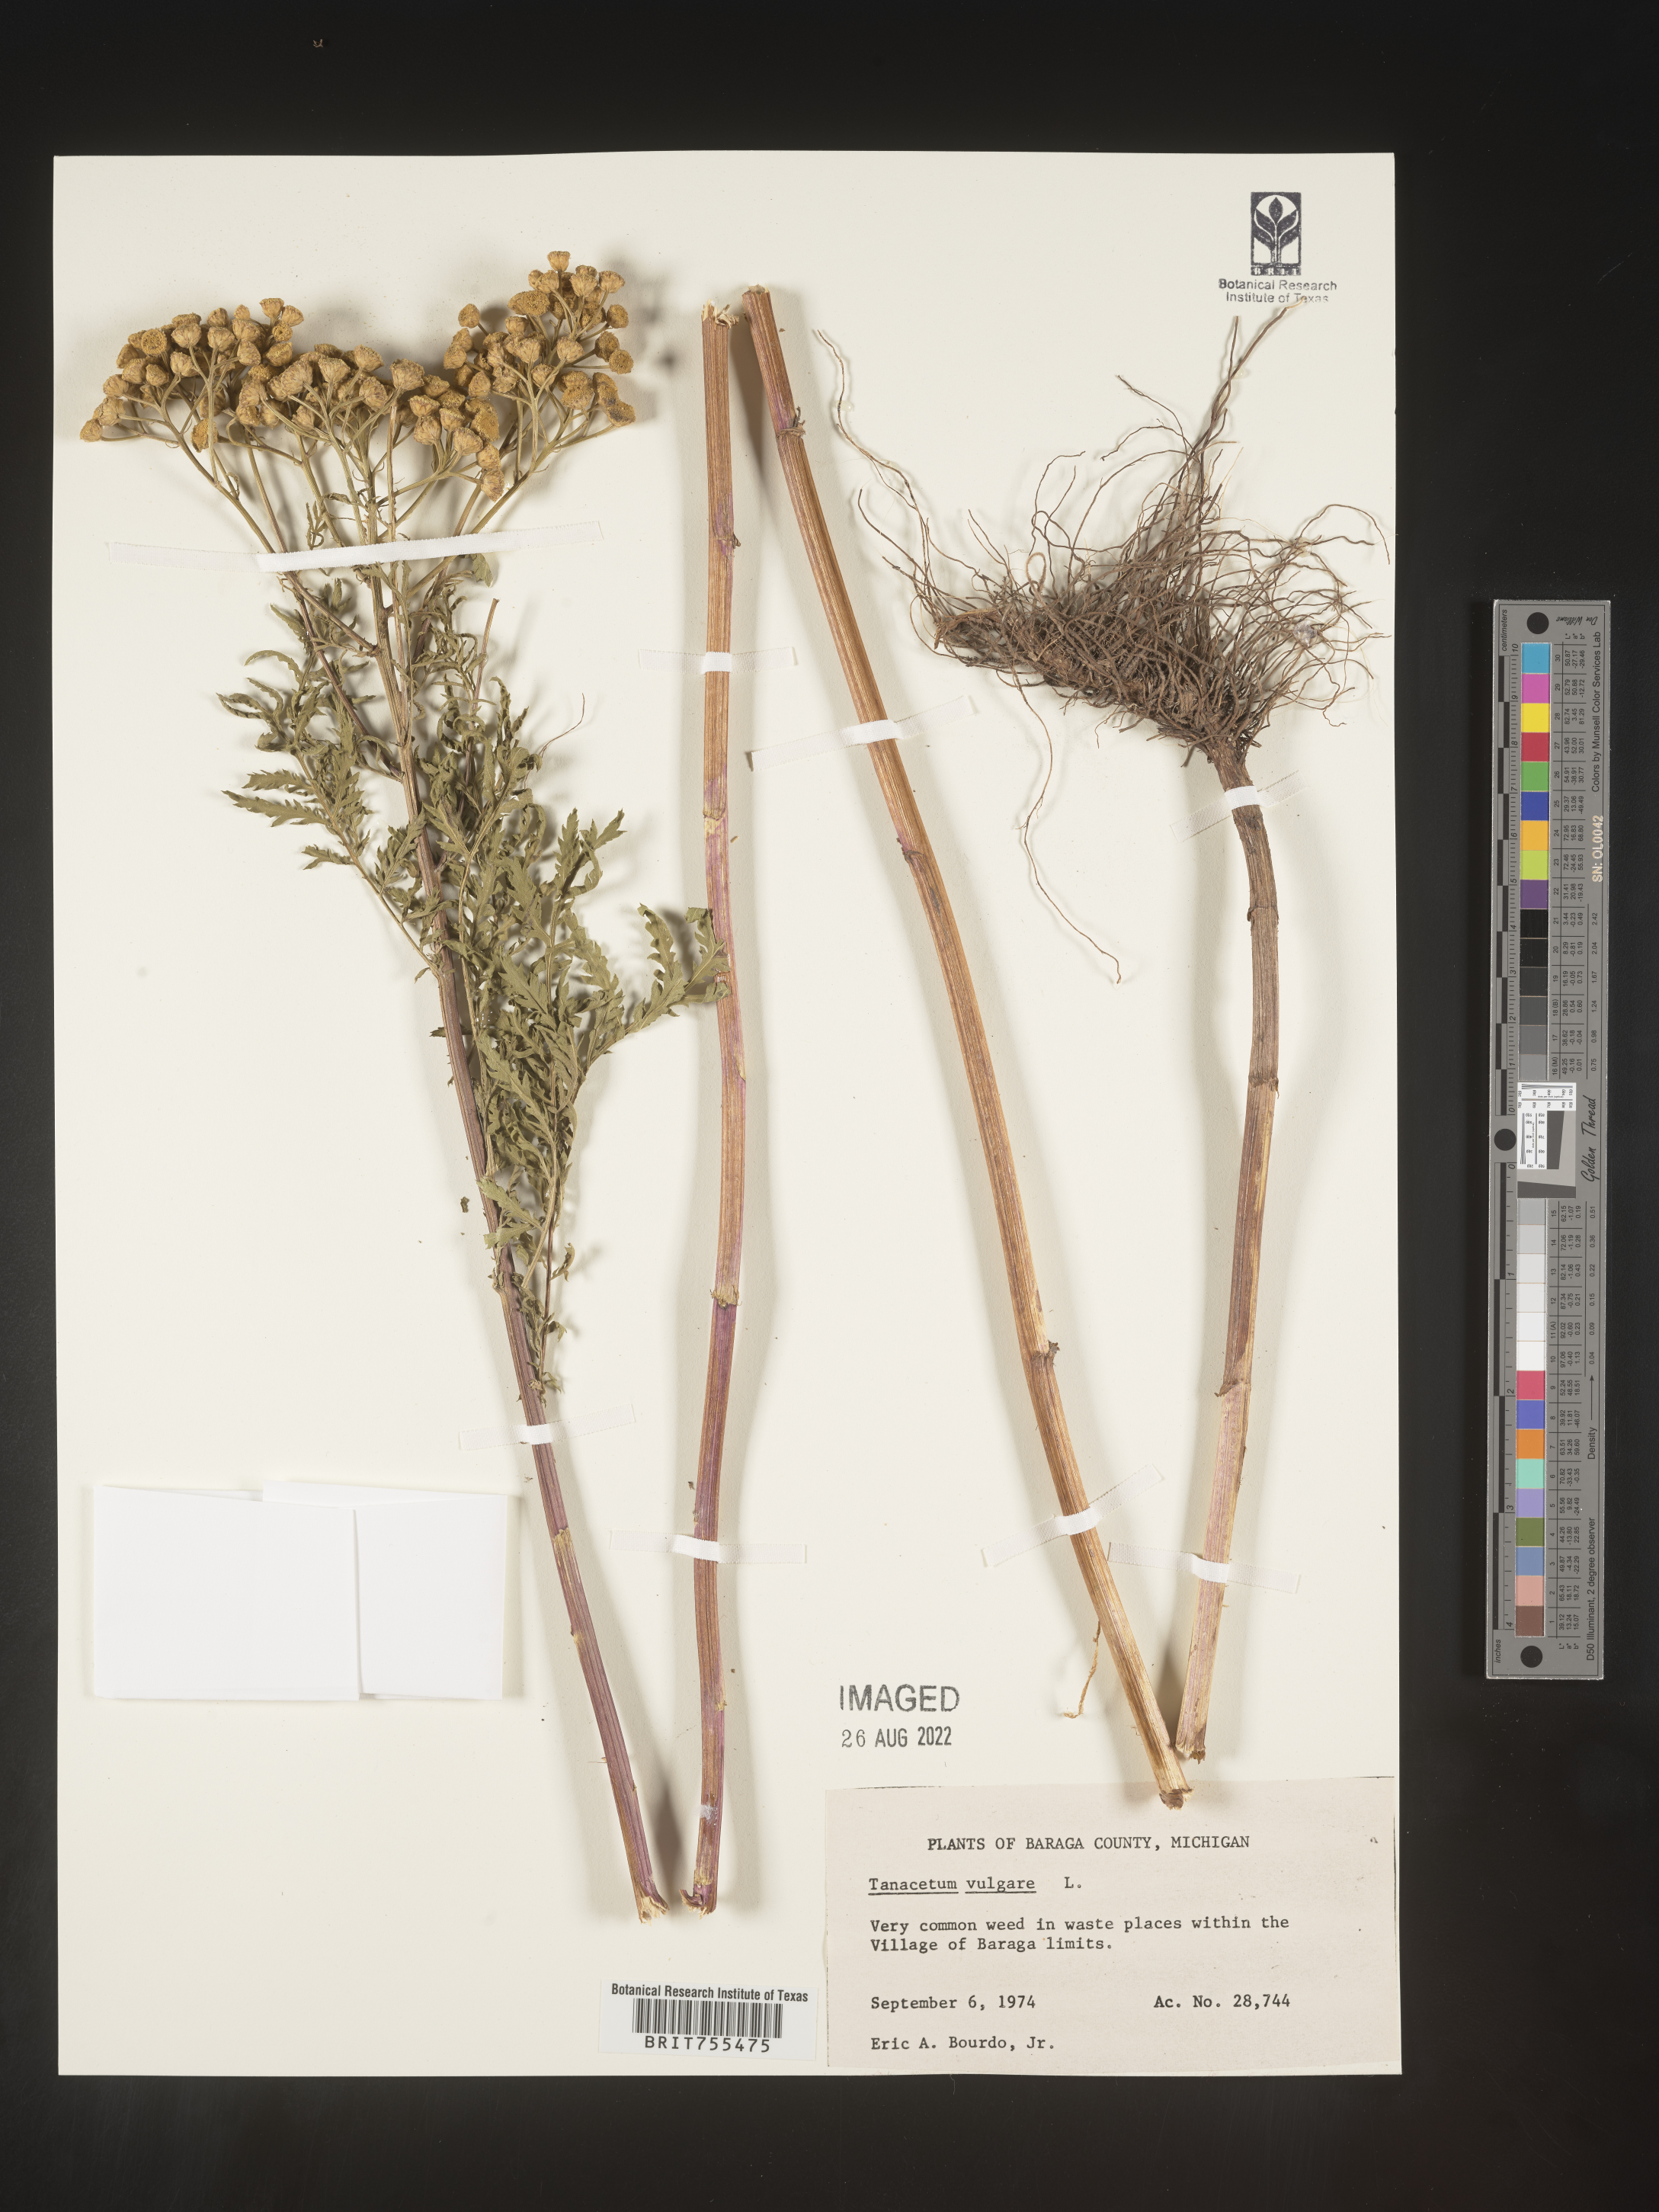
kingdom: Plantae
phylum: Tracheophyta
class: Magnoliopsida
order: Asterales
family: Asteraceae
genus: Tanacetum
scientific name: Tanacetum vulgare
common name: Common tansy
